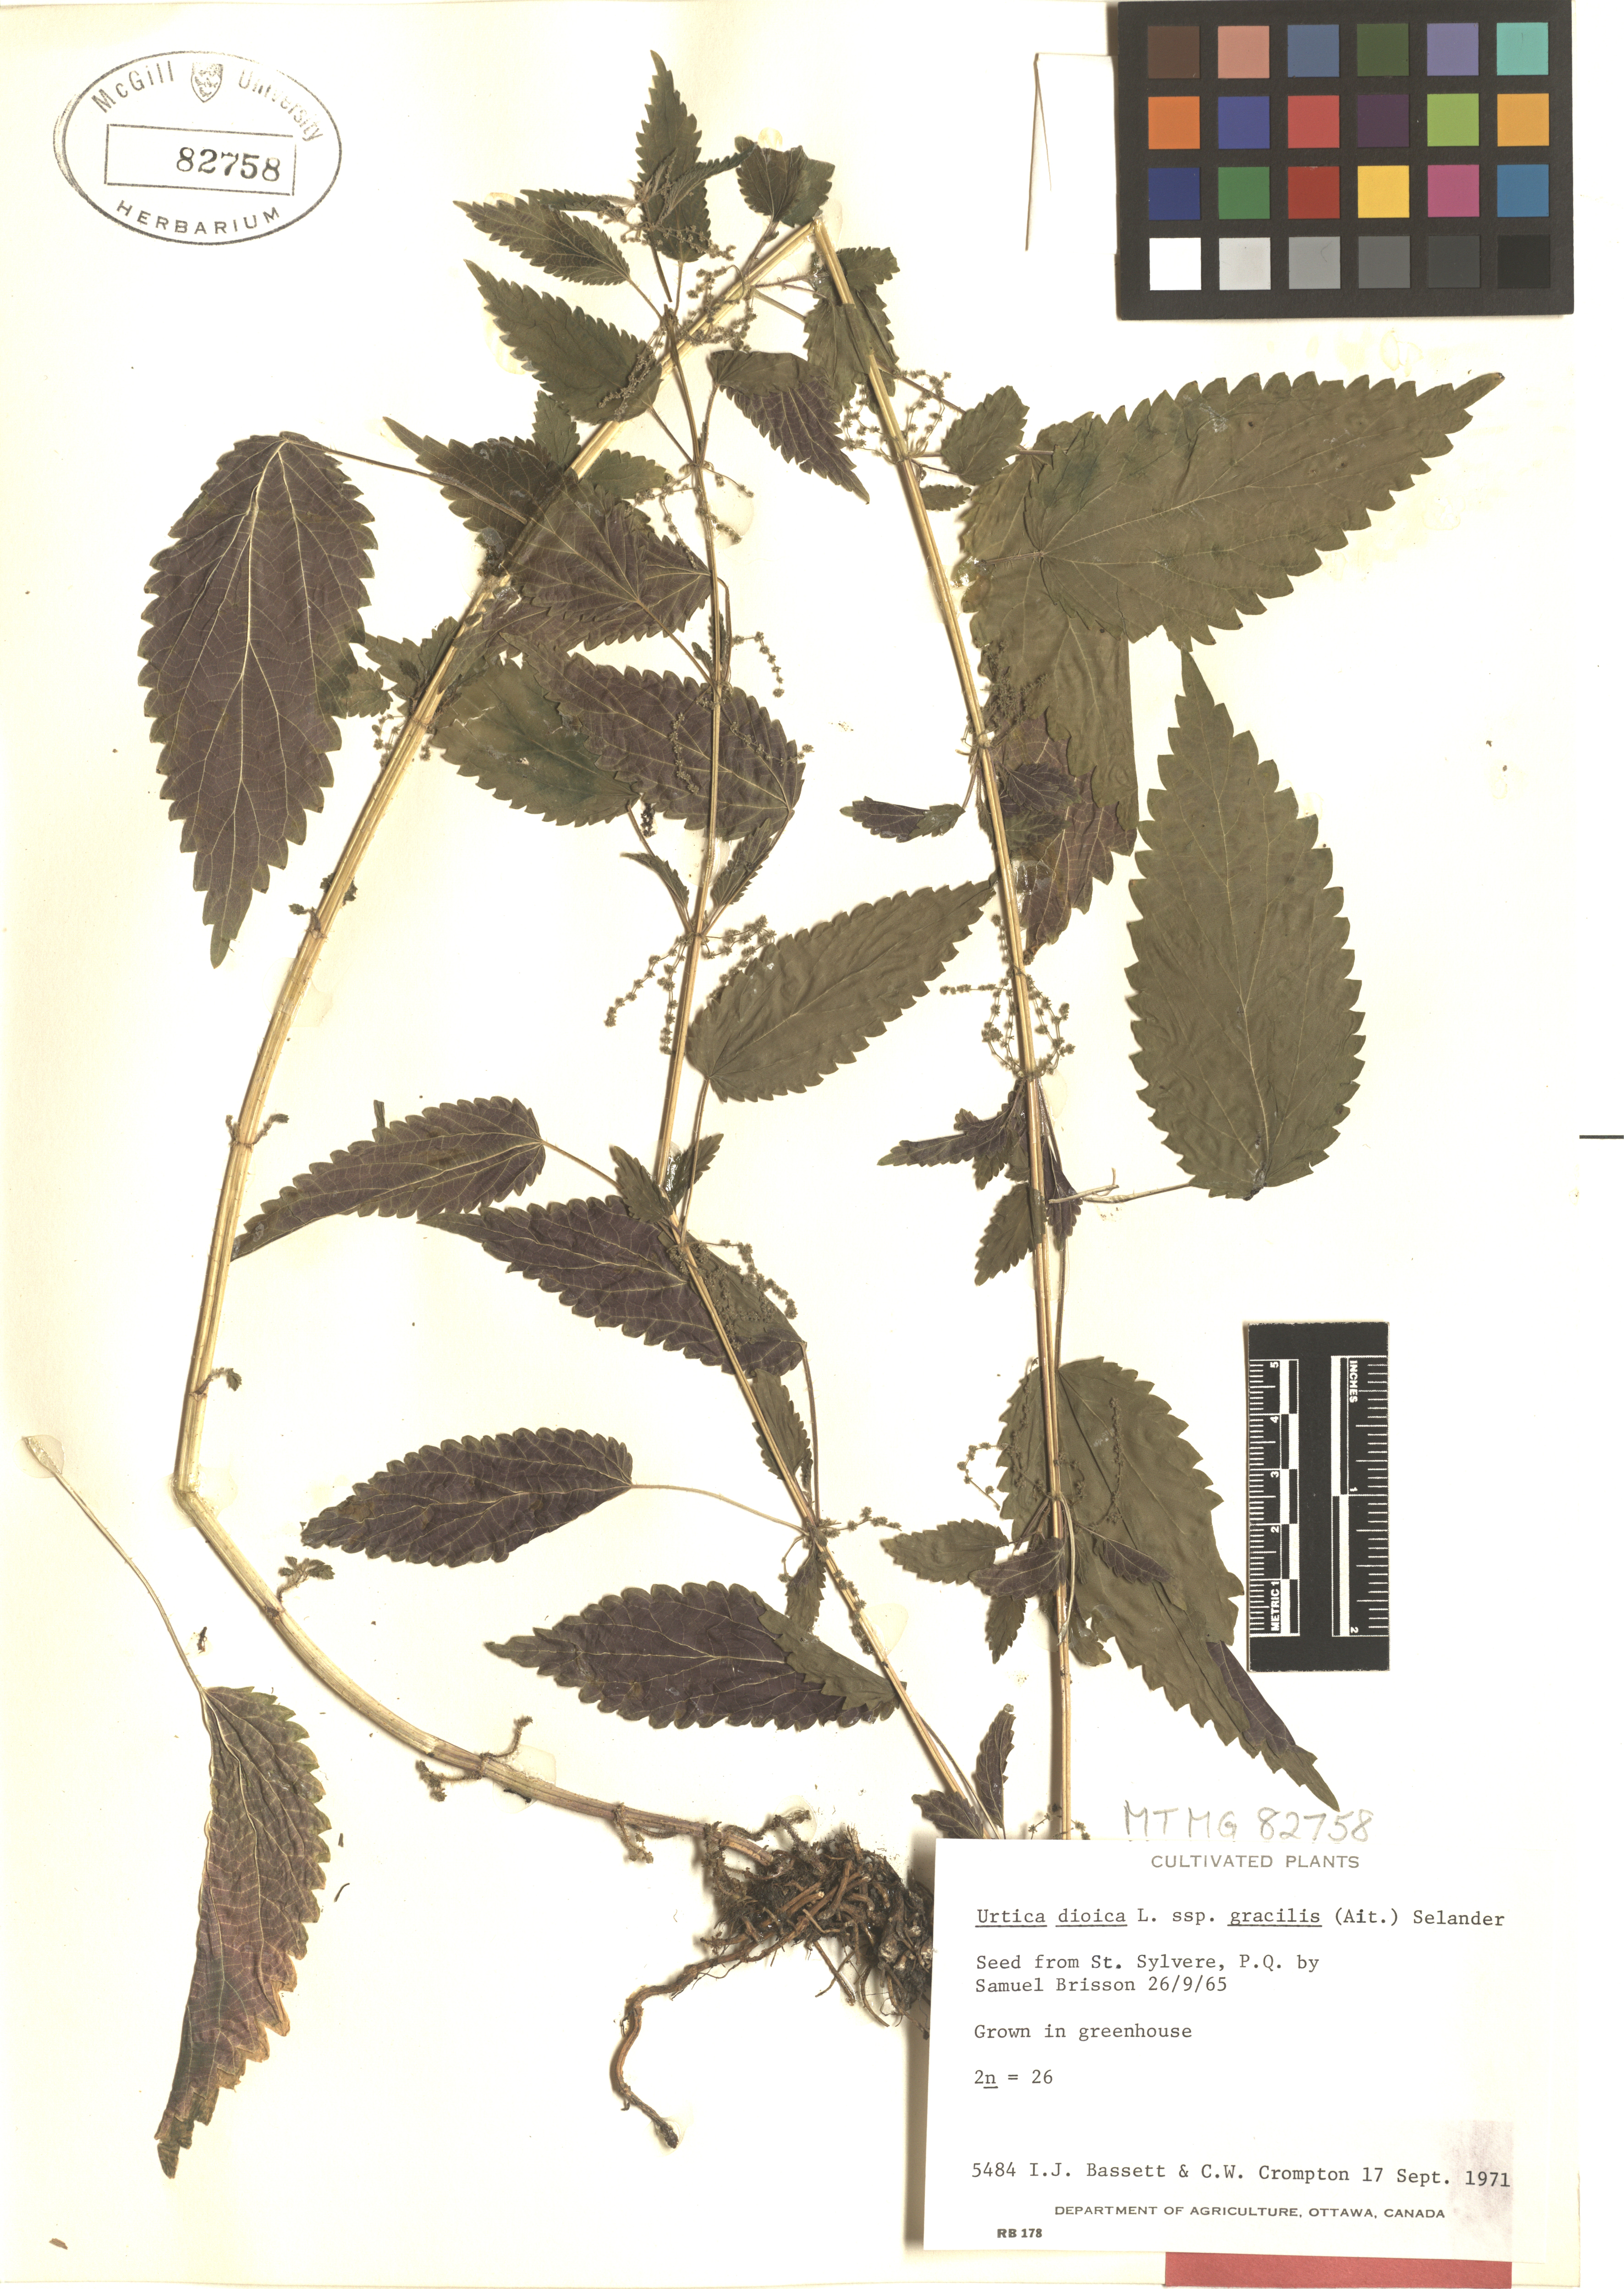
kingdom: Plantae
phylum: Tracheophyta
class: Magnoliopsida
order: Rosales
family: Urticaceae
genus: Urtica
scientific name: Urtica gracilis
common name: Slender stinging nettle
